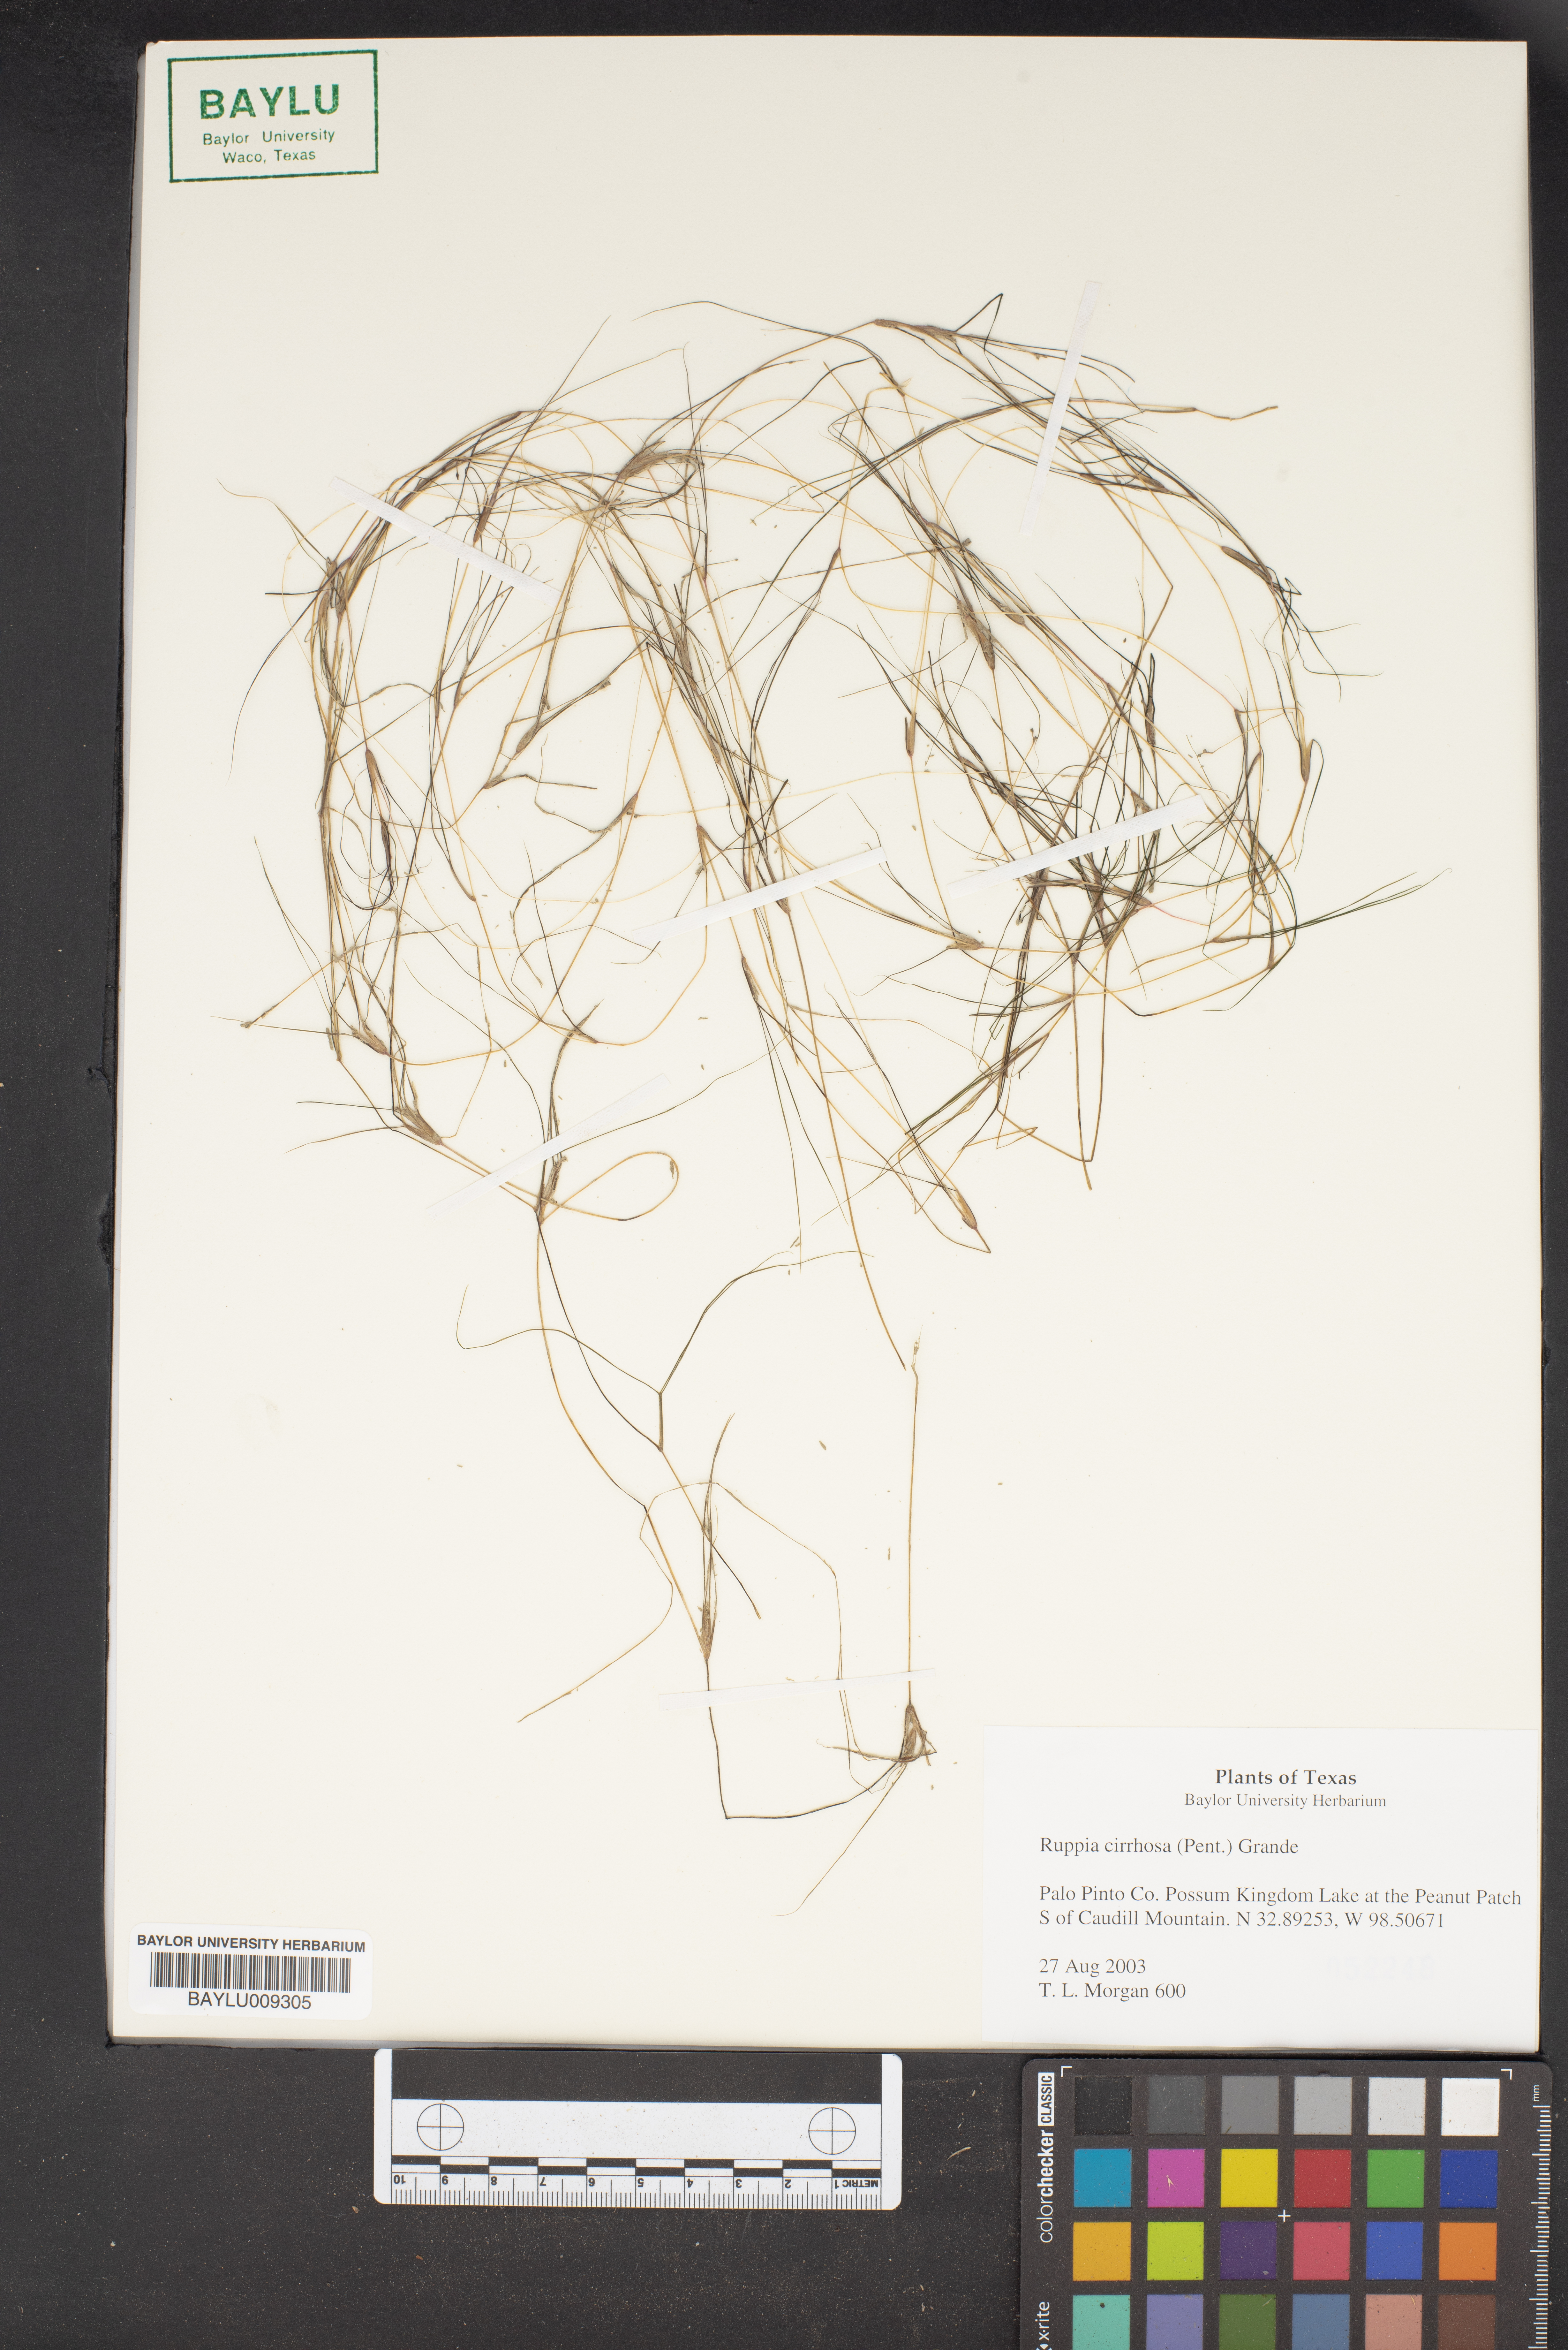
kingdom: Plantae
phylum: Tracheophyta
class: Liliopsida
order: Alismatales
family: Ruppiaceae
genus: Ruppia
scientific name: Ruppia cirrhosa
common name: Spiral tasselweed
